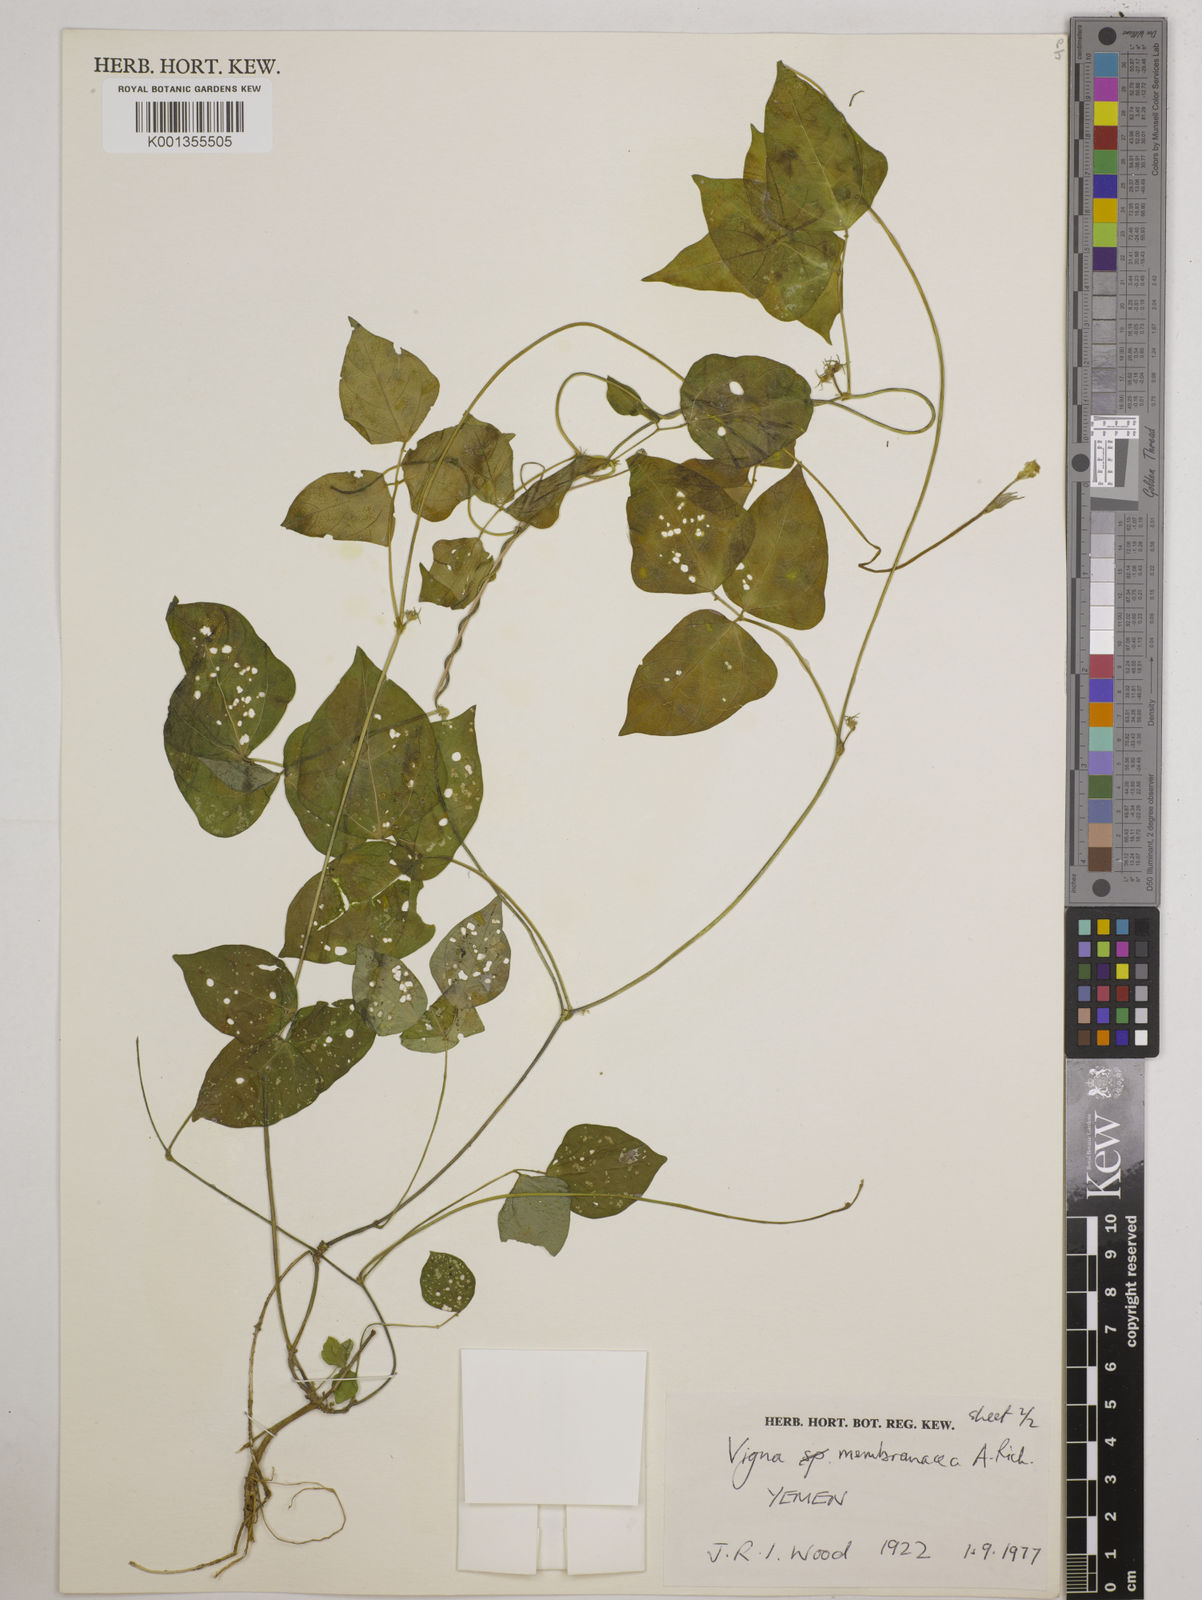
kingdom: Plantae
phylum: Tracheophyta
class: Magnoliopsida
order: Fabales
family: Fabaceae
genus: Vigna
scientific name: Vigna membranacea
